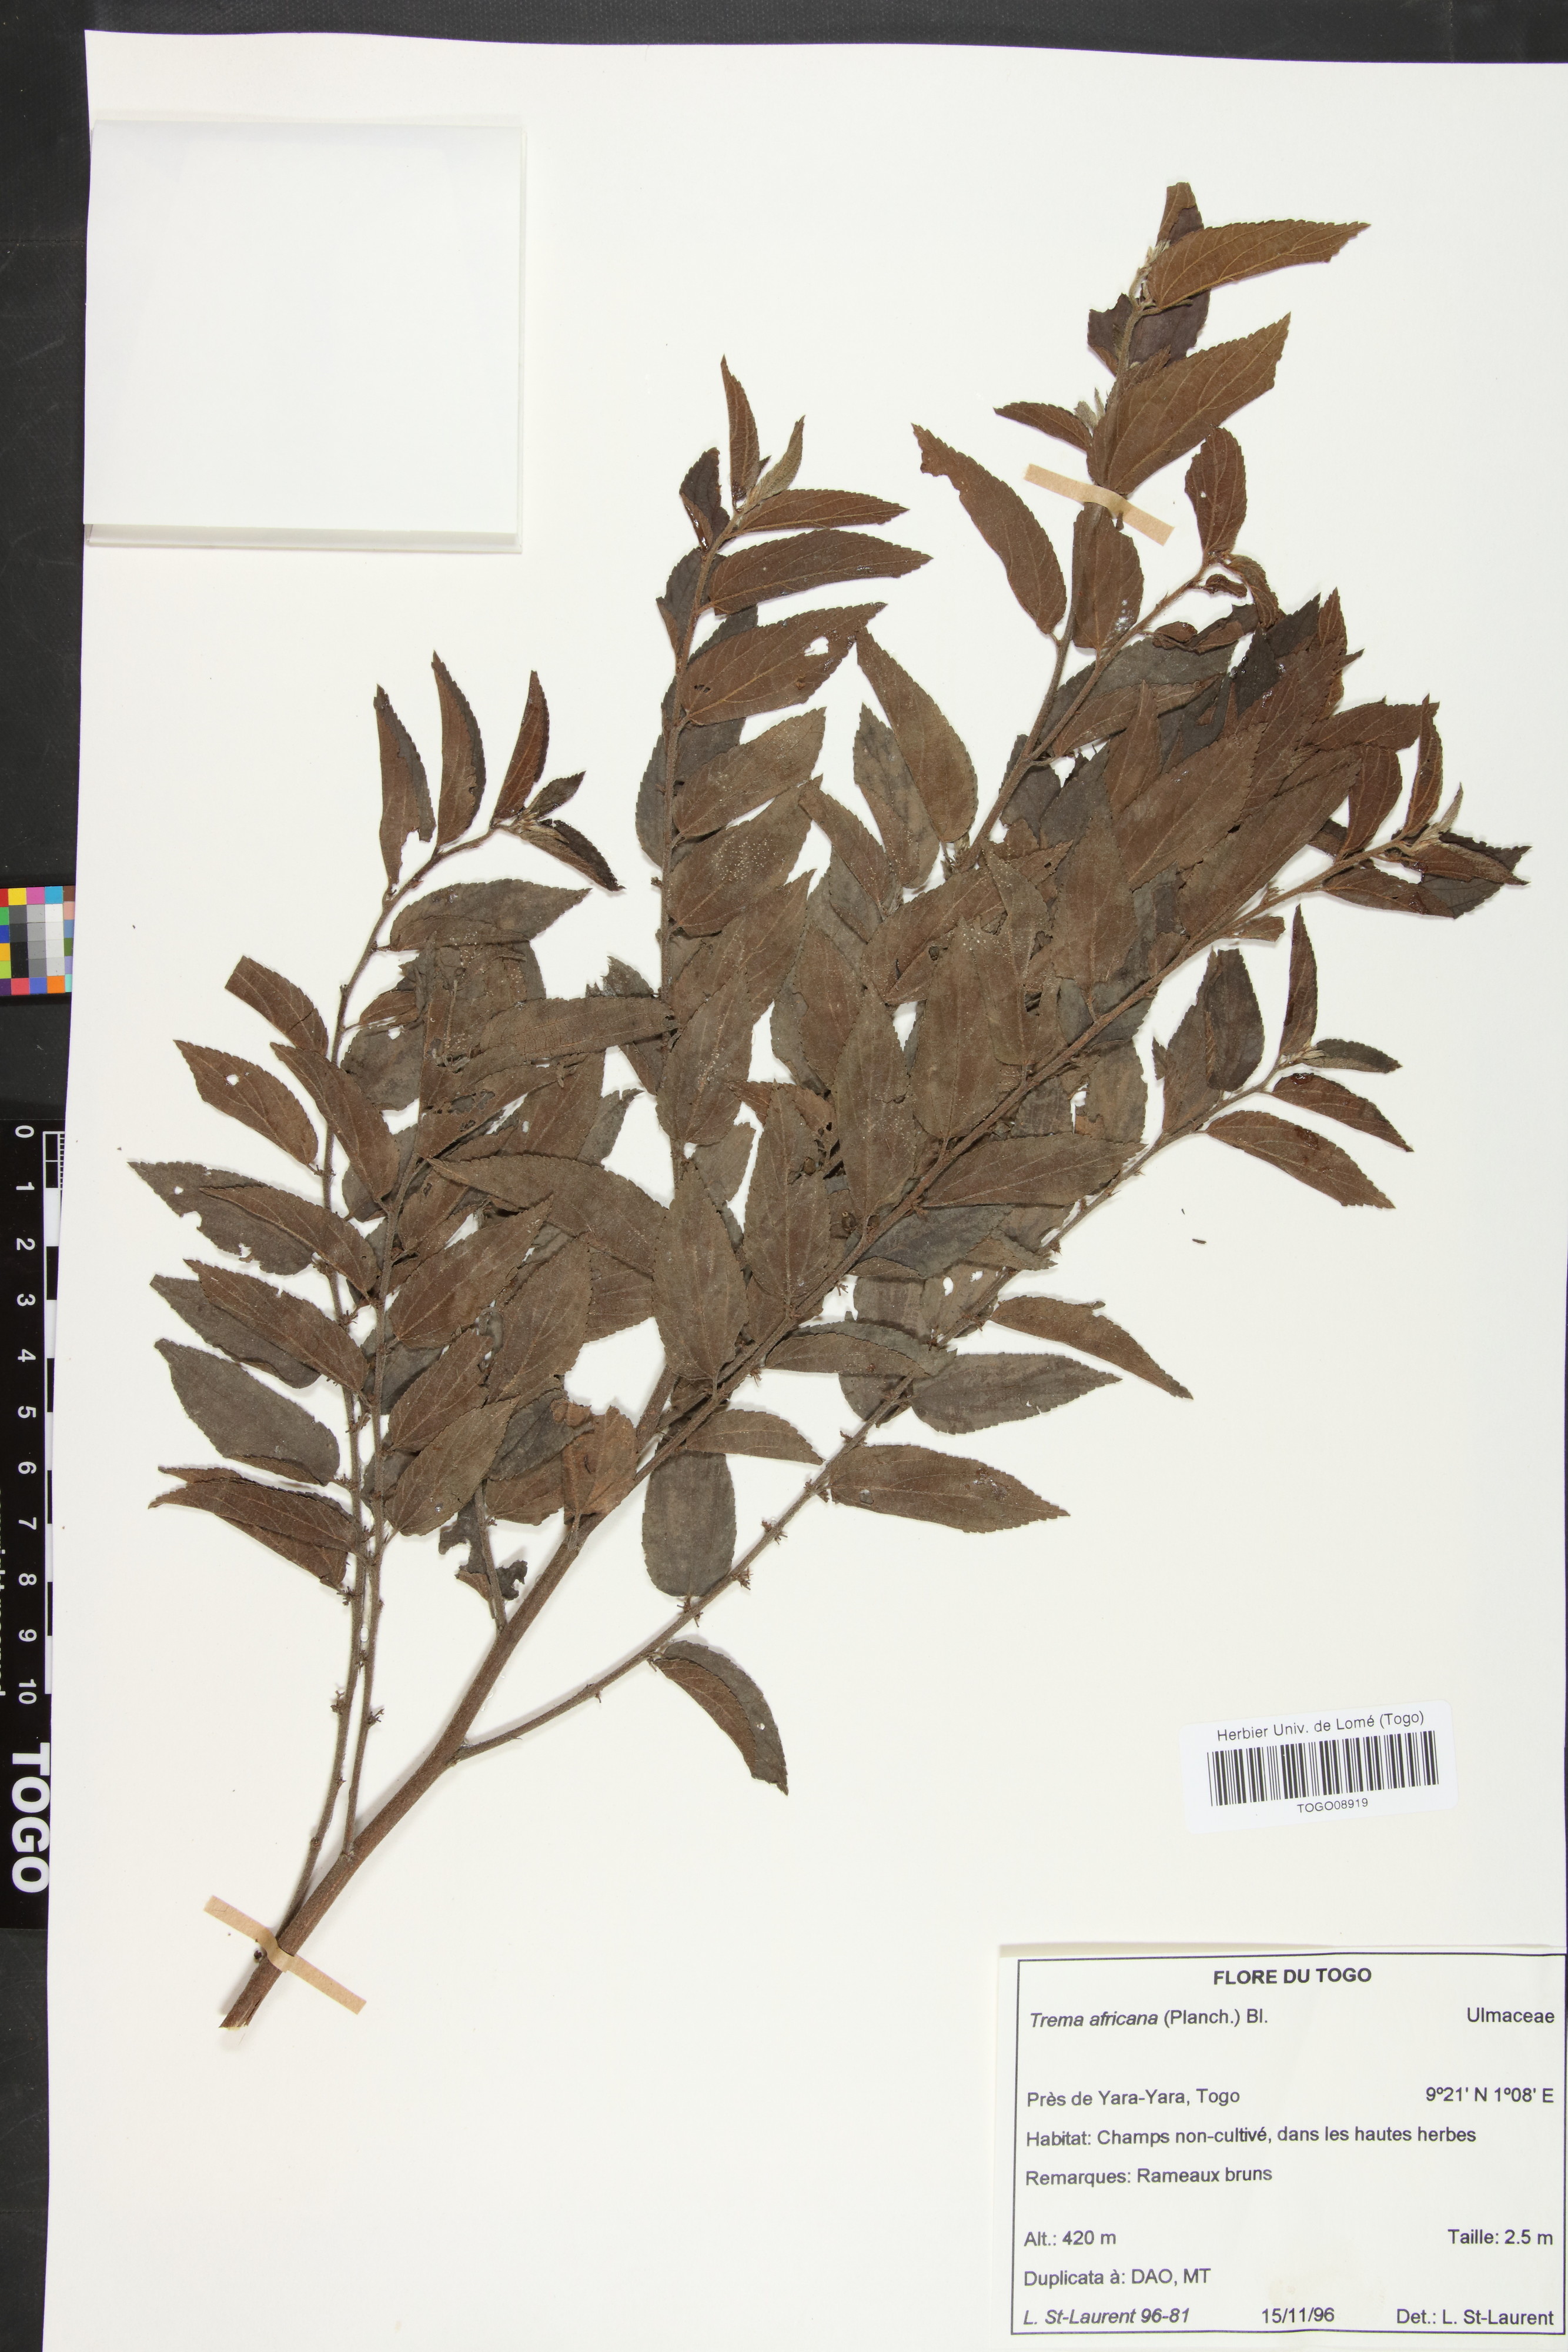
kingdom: Plantae
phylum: Tracheophyta
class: Magnoliopsida
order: Rosales
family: Cannabaceae
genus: Trema
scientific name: Trema orientale
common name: Indian charcoal tree
